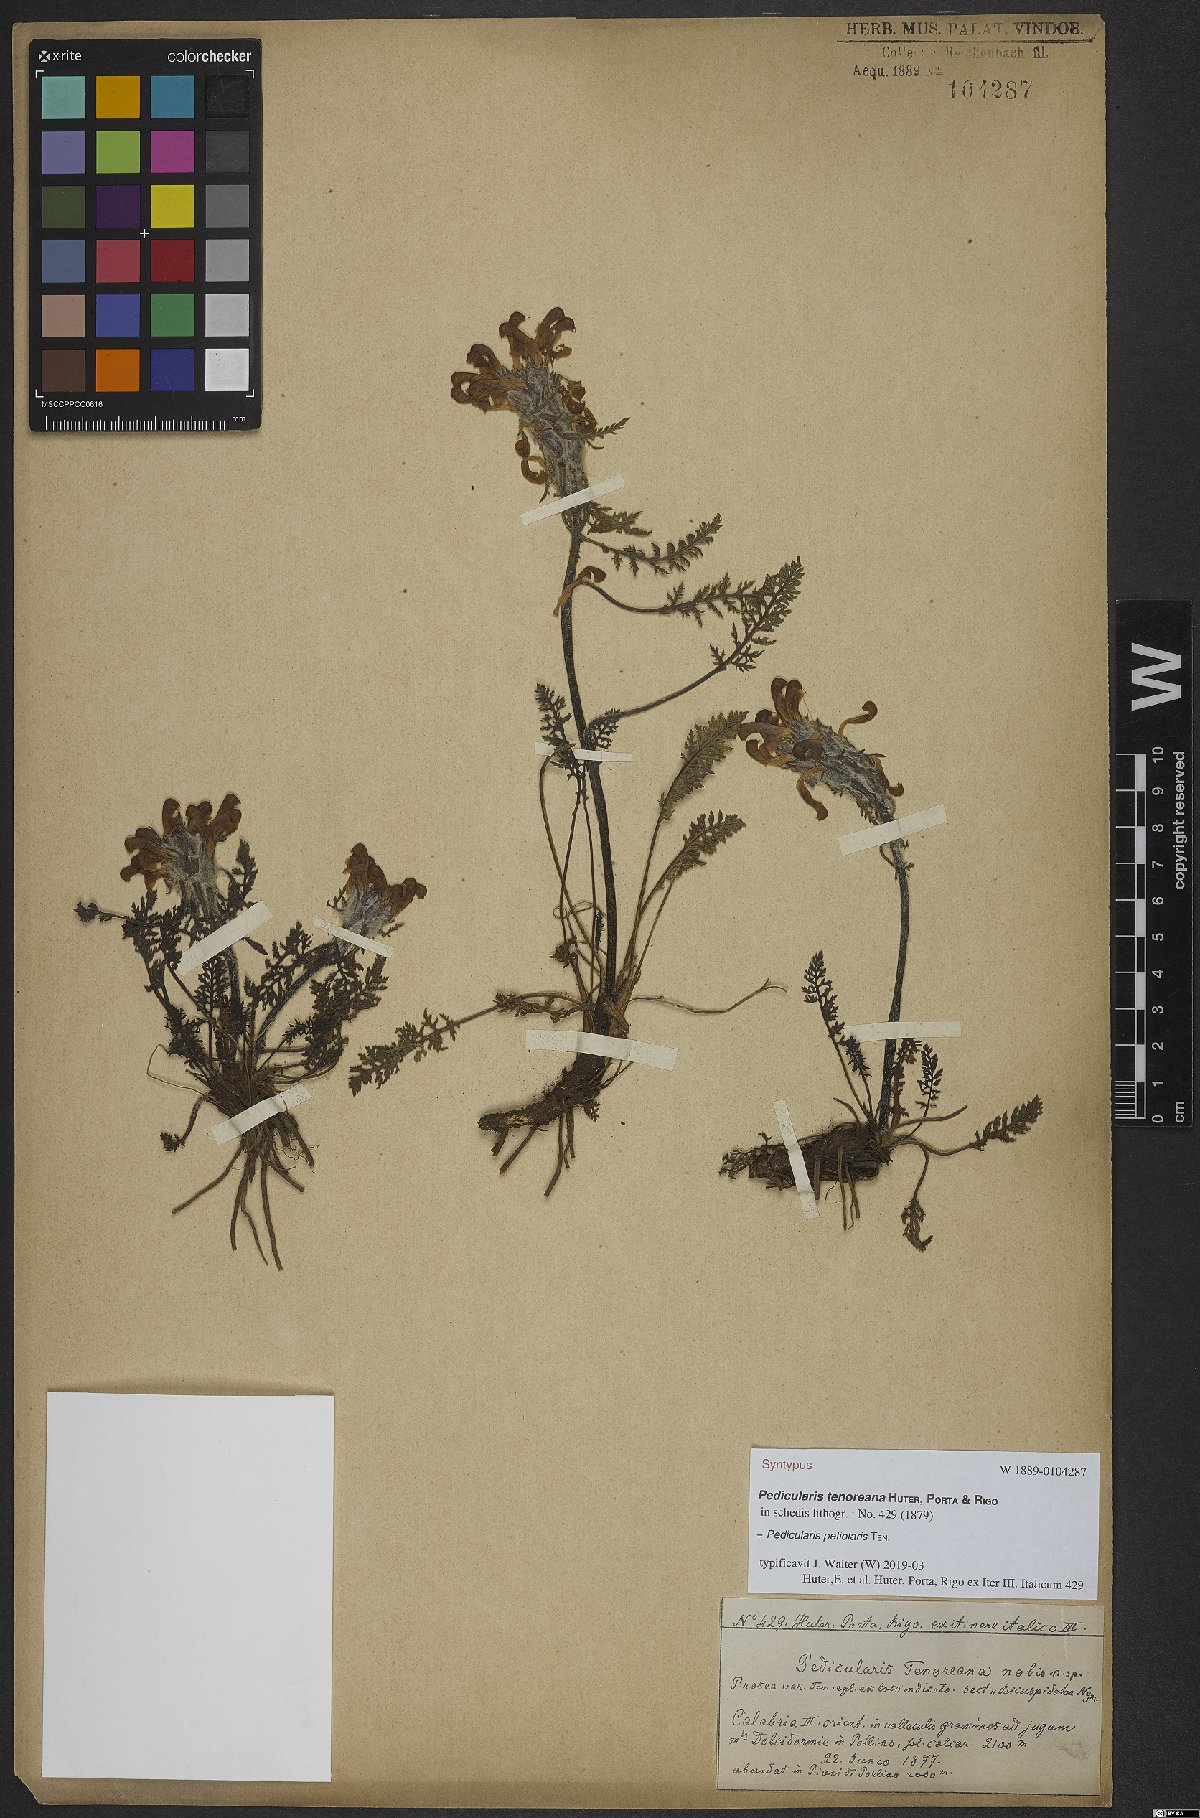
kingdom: Plantae
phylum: Tracheophyta
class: Magnoliopsida
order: Lamiales
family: Orobanchaceae
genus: Pedicularis
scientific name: Pedicularis petiolaris
